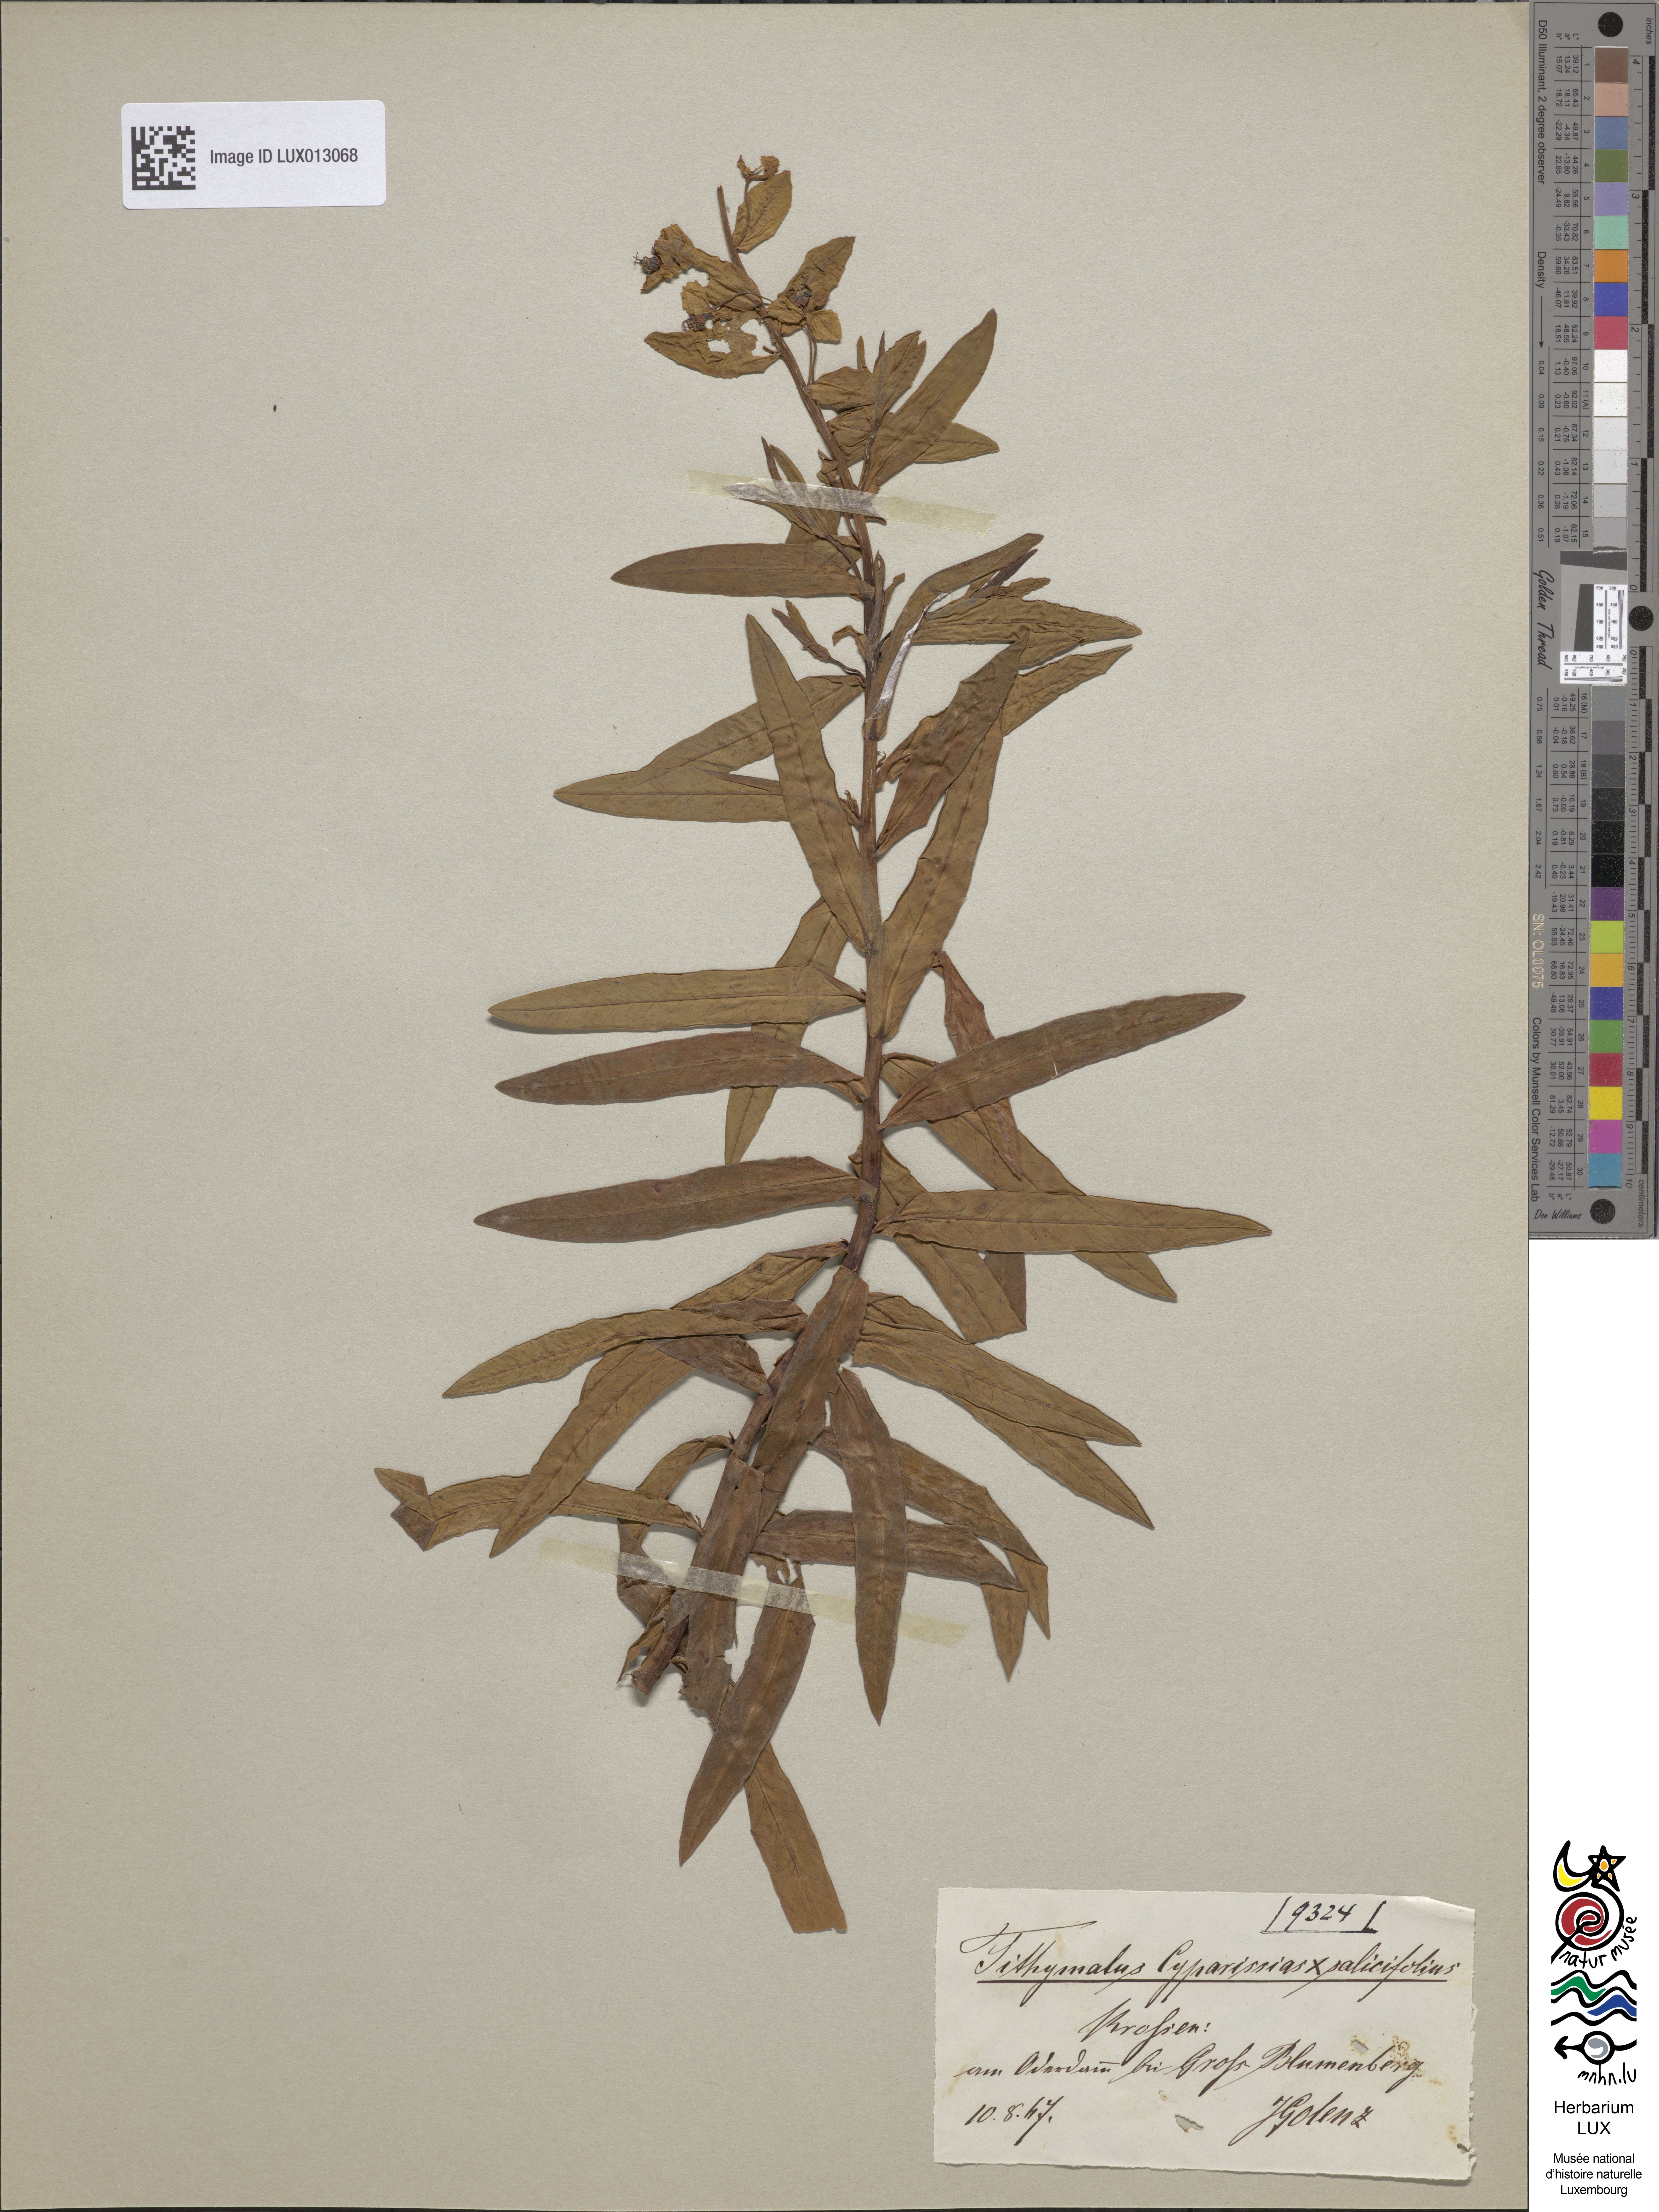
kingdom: Plantae
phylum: Tracheophyta
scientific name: Tracheophyta
